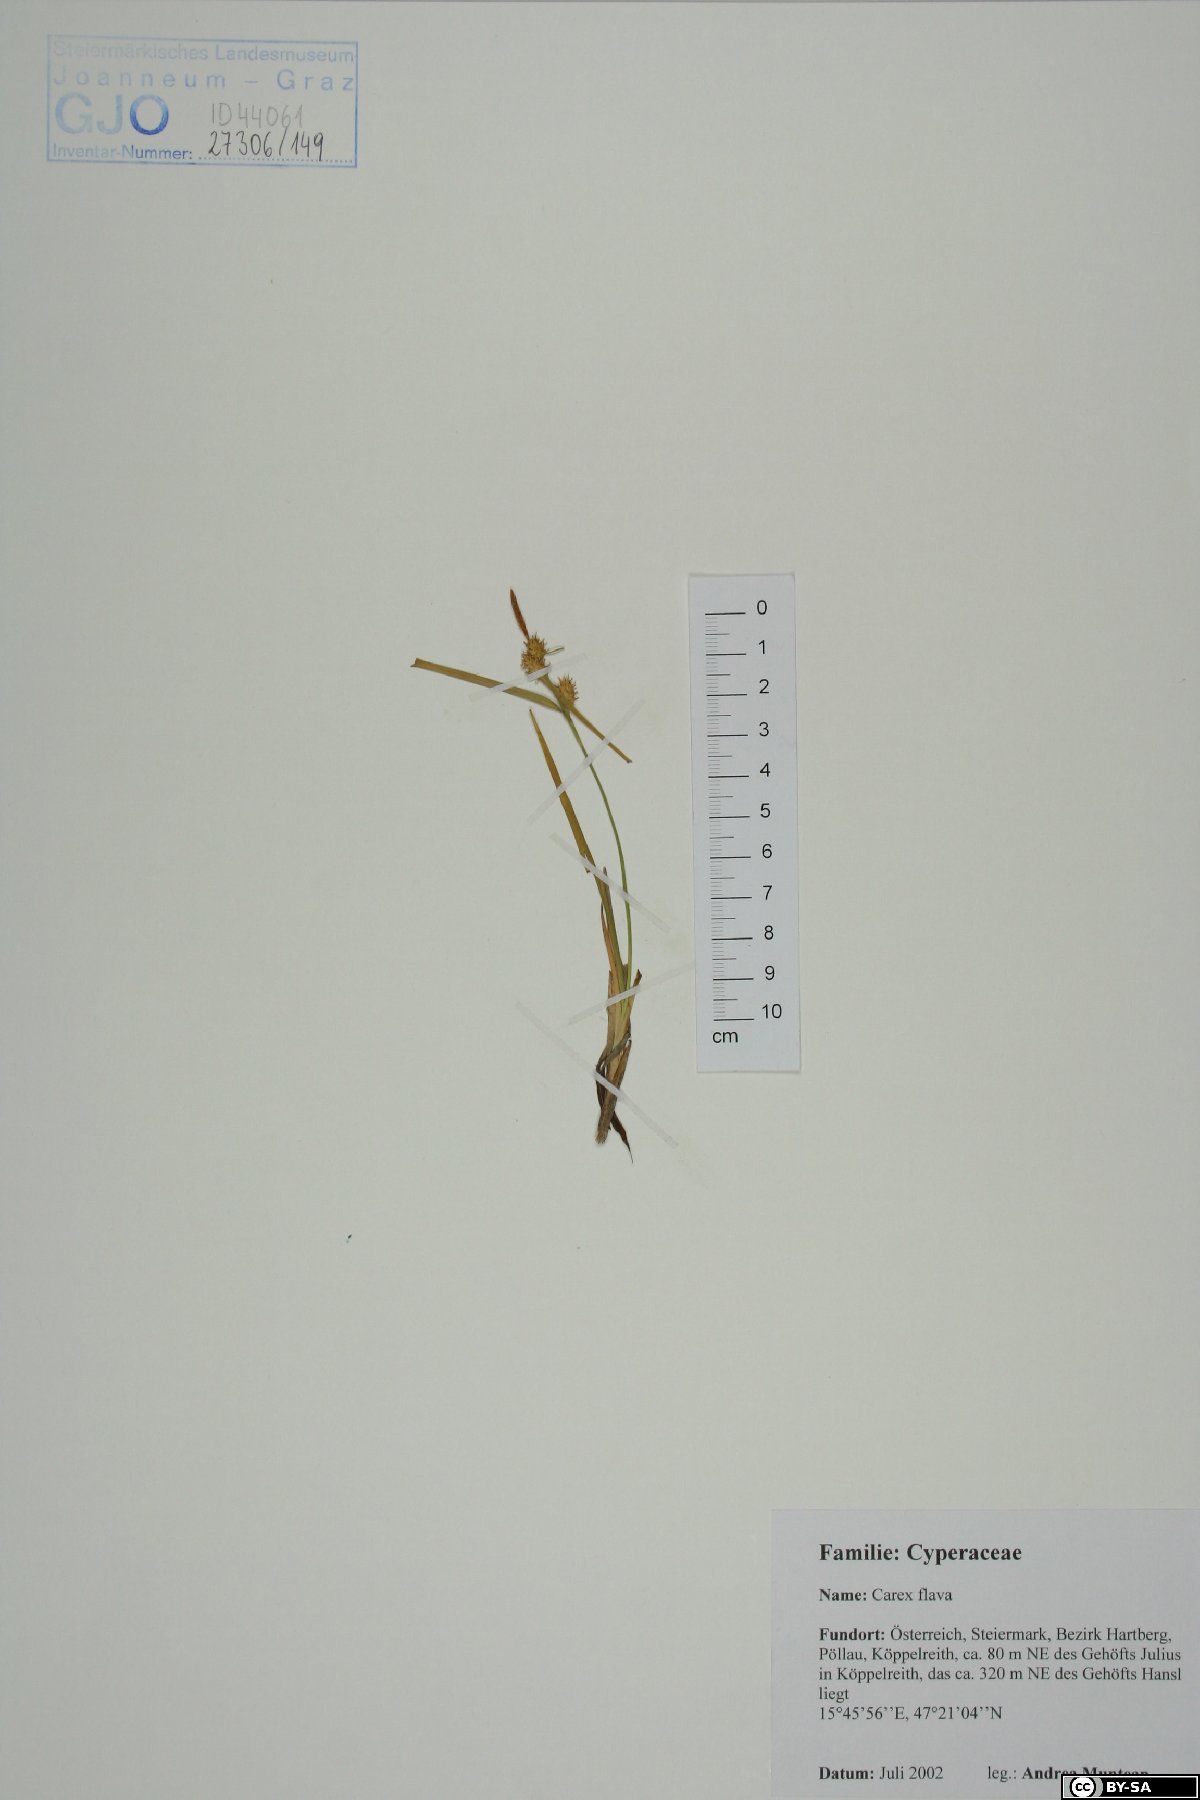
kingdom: Plantae
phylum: Tracheophyta
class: Liliopsida
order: Poales
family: Cyperaceae
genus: Carex
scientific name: Carex flava
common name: Large yellow-sedge
